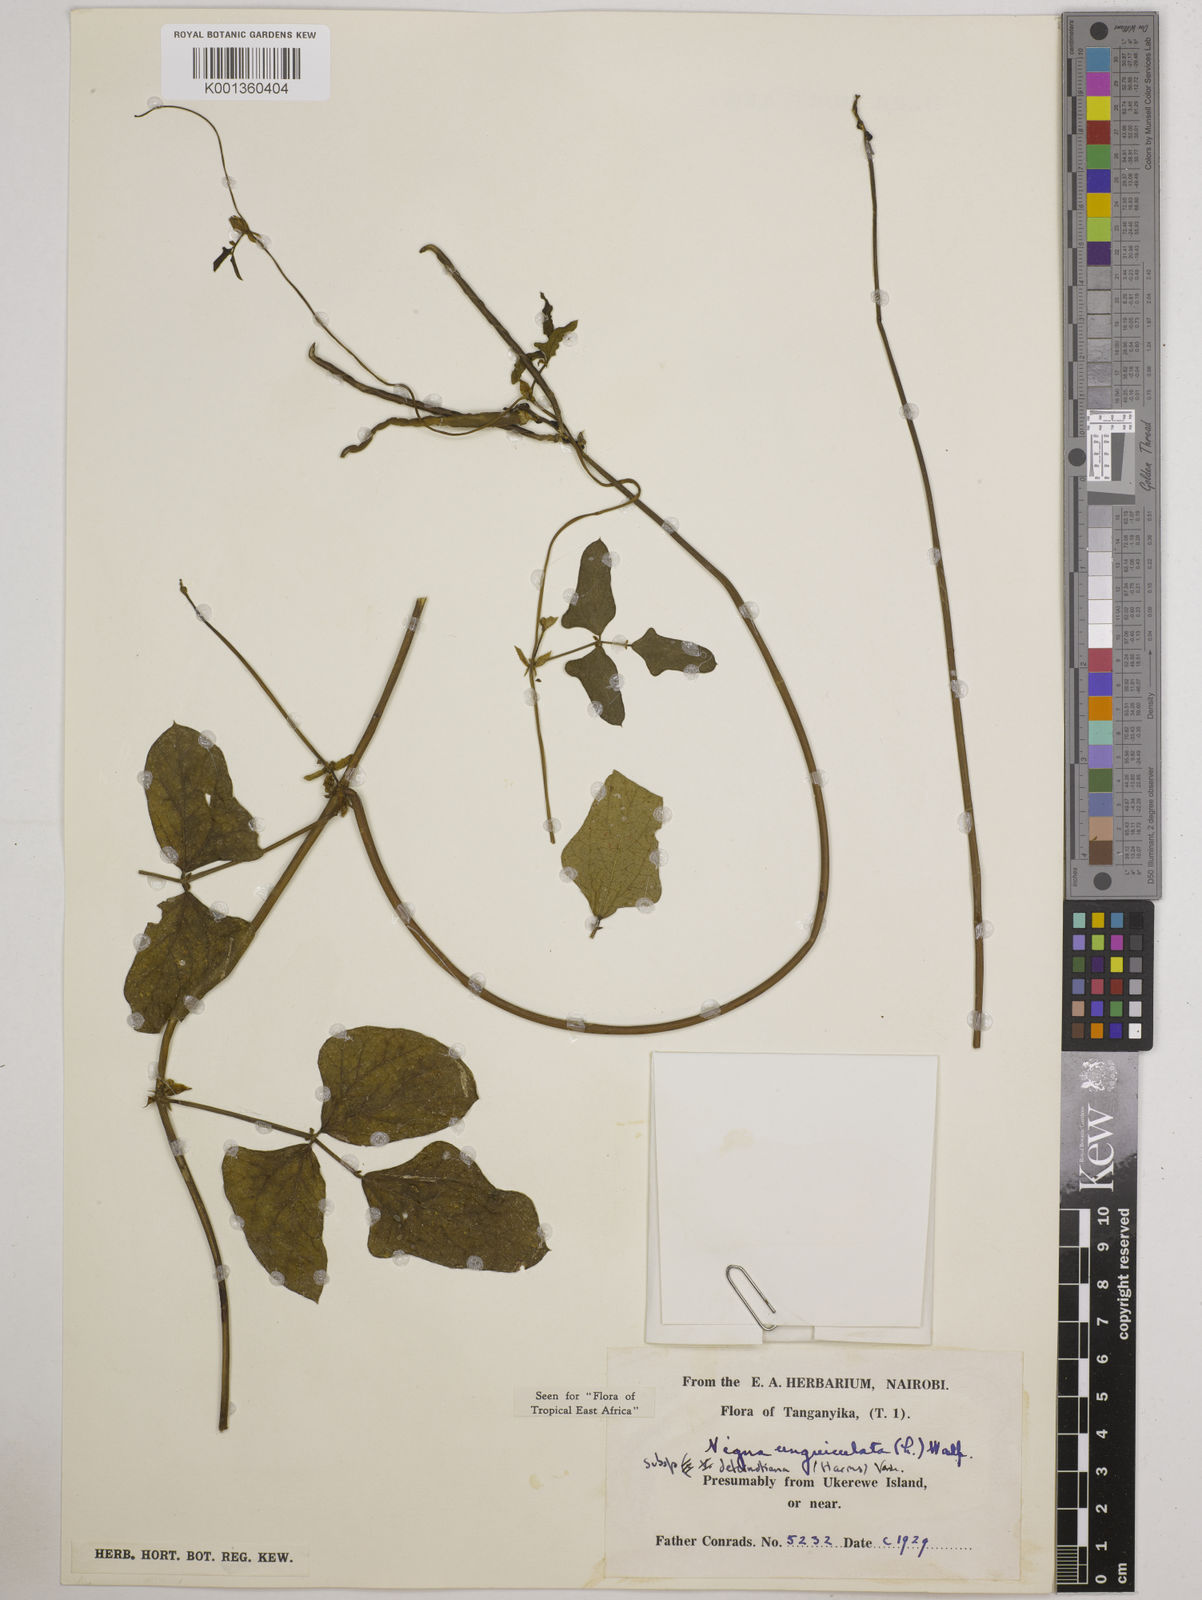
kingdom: Plantae
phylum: Tracheophyta
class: Magnoliopsida
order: Fabales
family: Fabaceae
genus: Vigna
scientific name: Vigna
